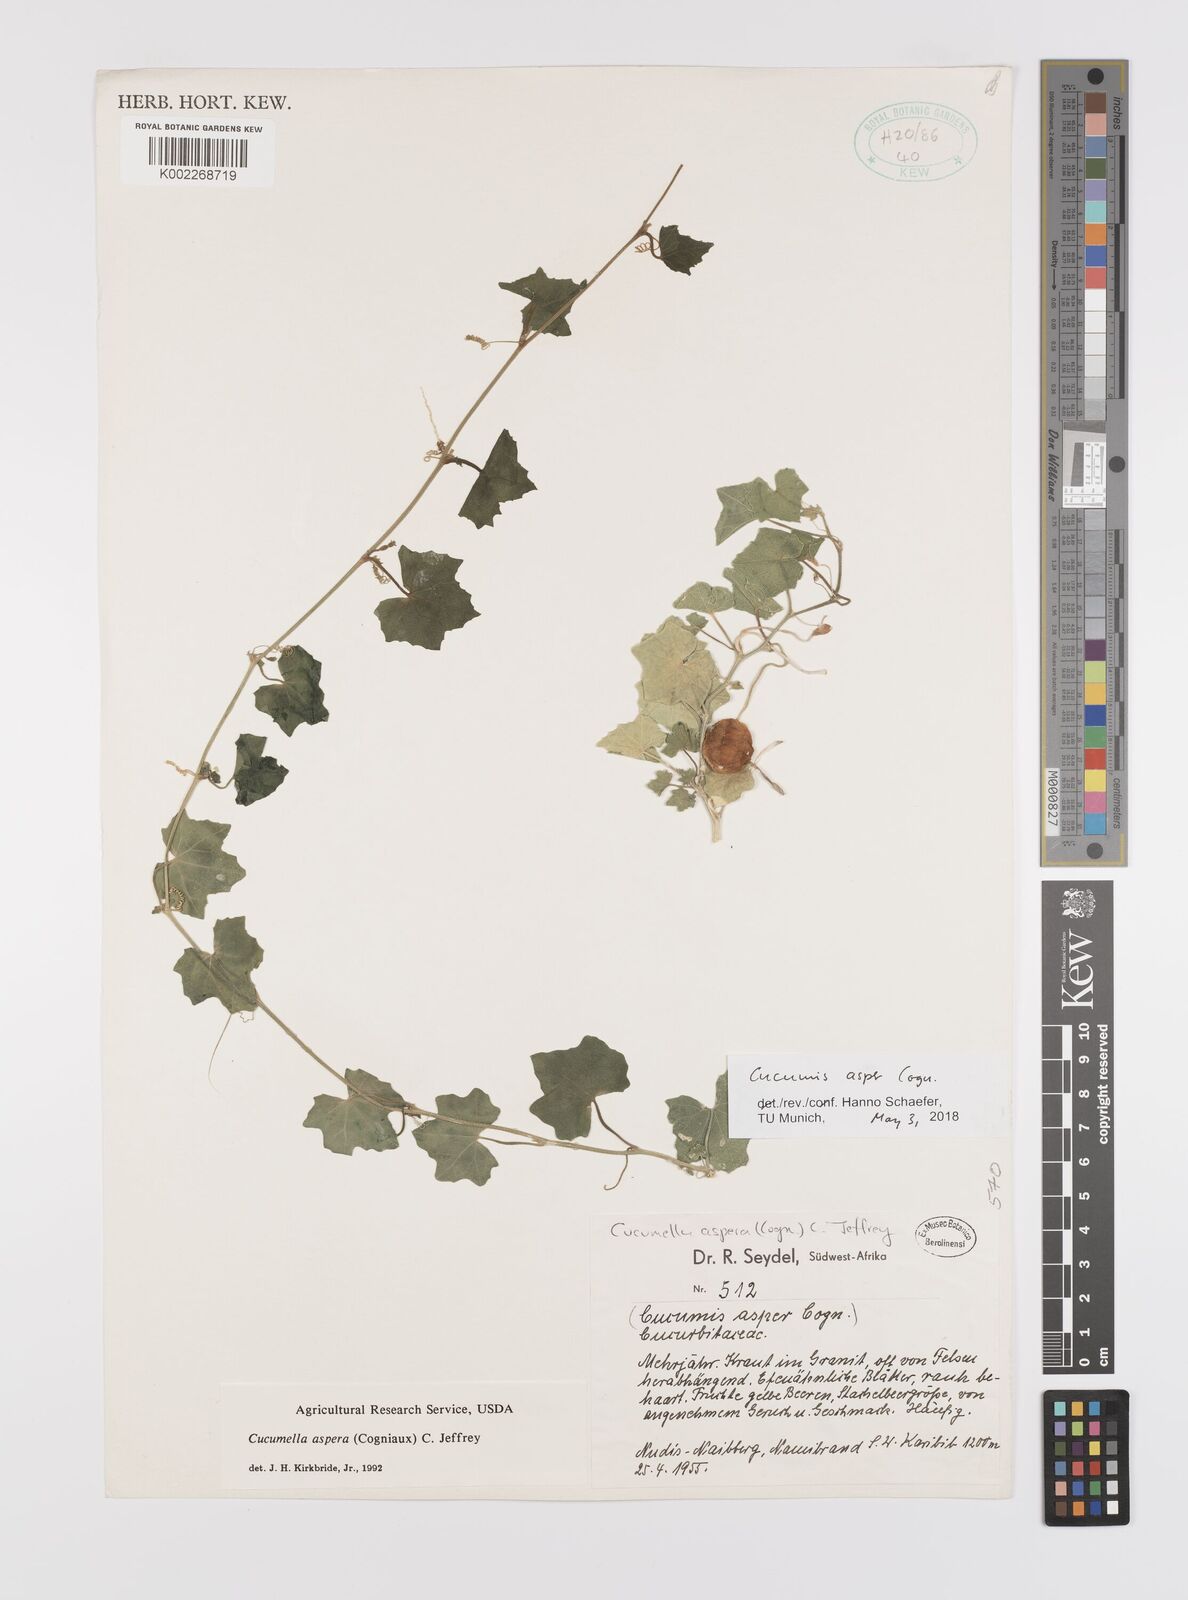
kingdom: Plantae
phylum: Tracheophyta
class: Magnoliopsida
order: Cucurbitales
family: Cucurbitaceae
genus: Cucumis
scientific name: Cucumis asper
